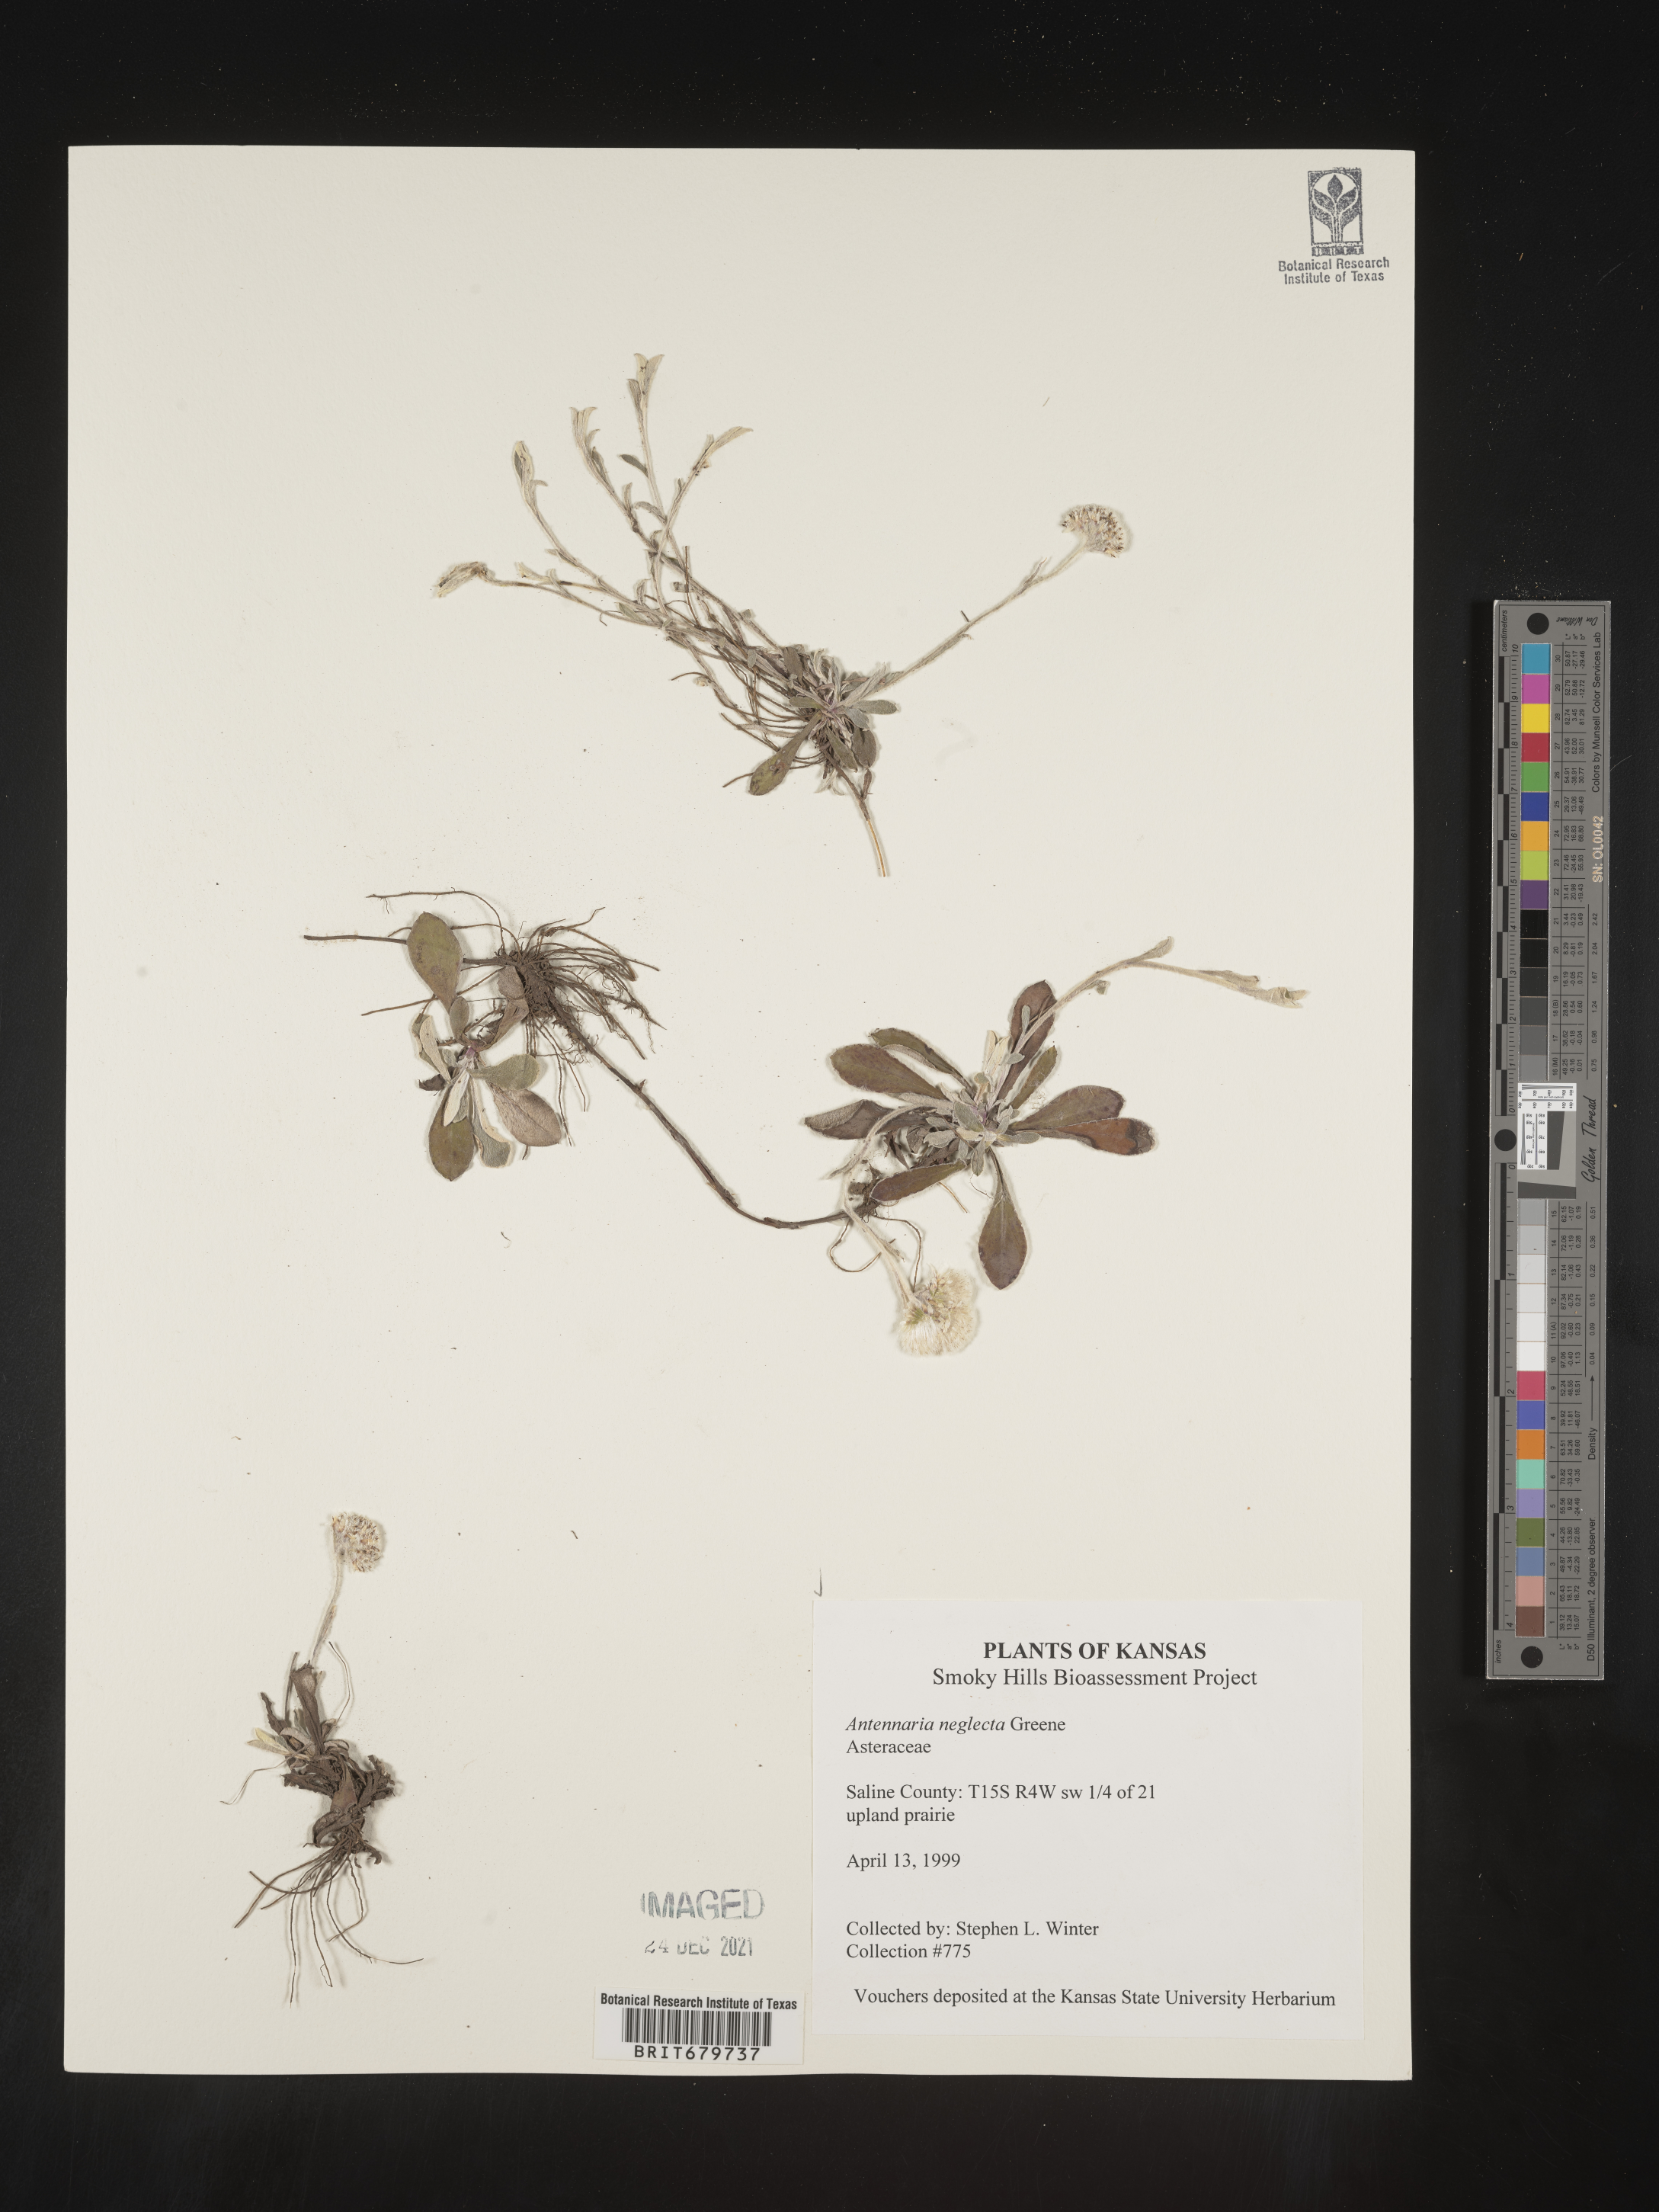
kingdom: Plantae
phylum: Tracheophyta
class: Magnoliopsida
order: Asterales
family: Asteraceae
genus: Antennaria
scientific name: Antennaria neglecta
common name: Field pussytoes
